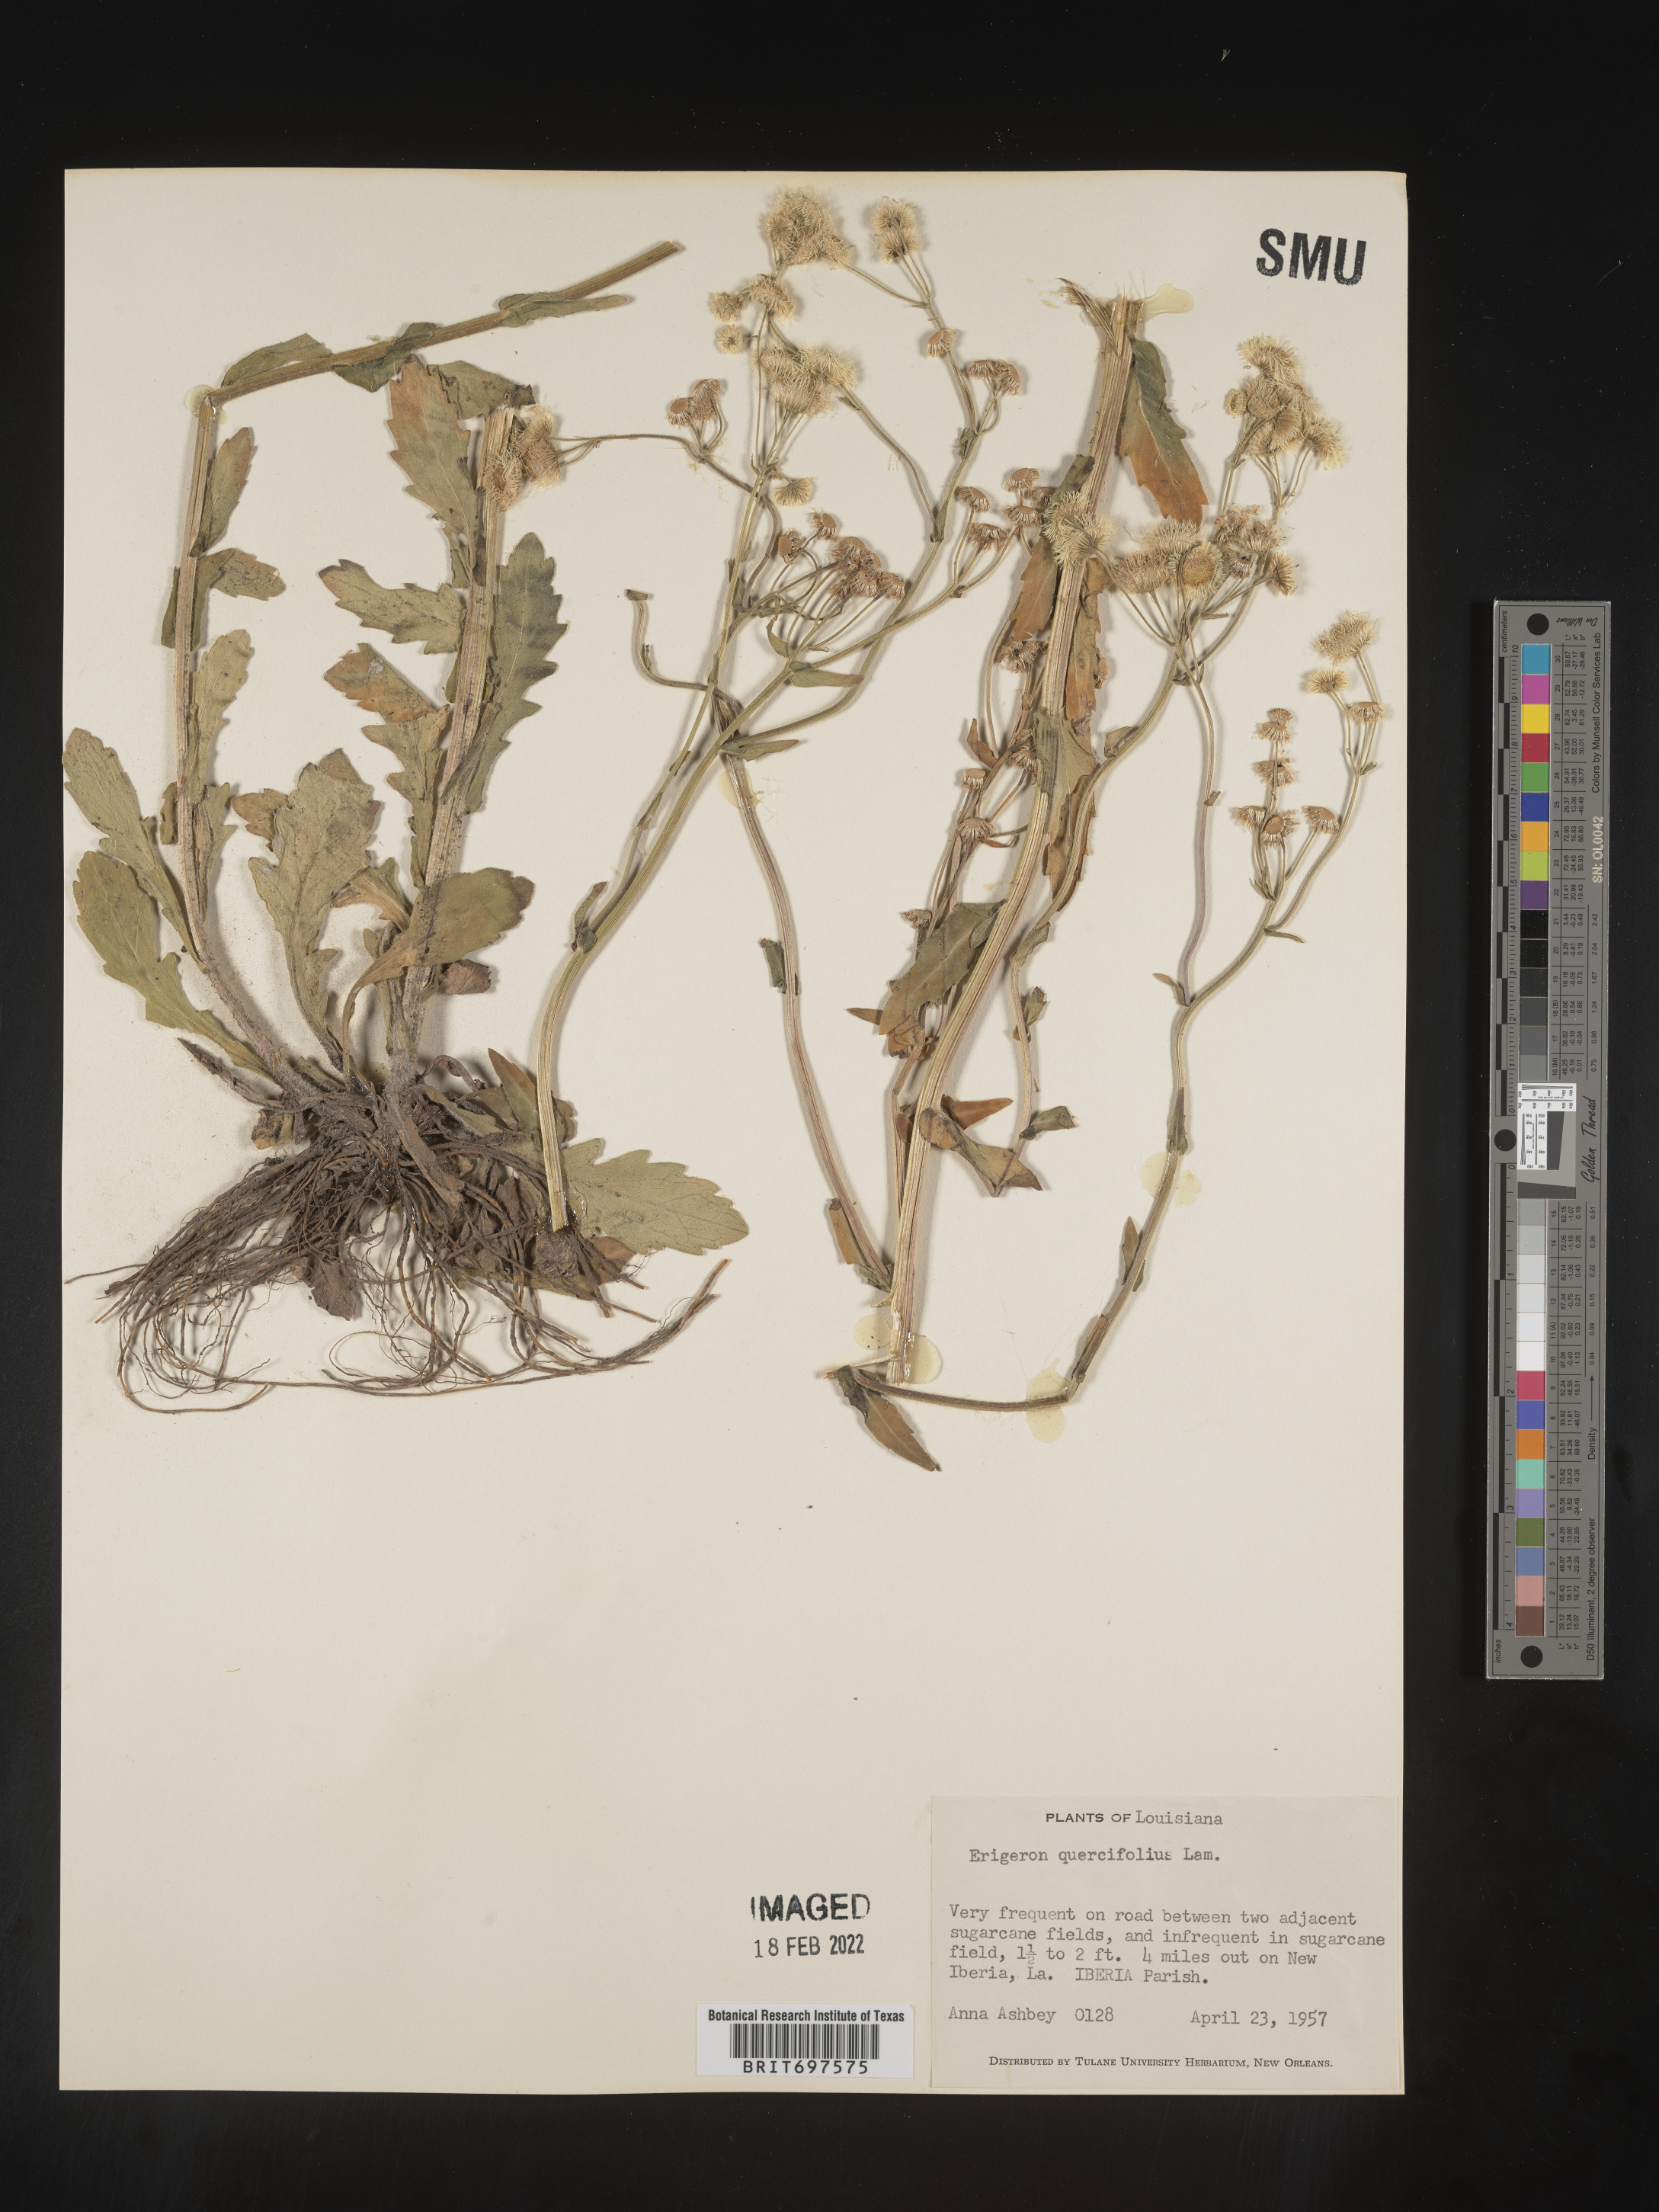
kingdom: Plantae
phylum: Tracheophyta
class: Magnoliopsida
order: Asterales
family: Asteraceae
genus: Erigeron
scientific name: Erigeron philadelphicus
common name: Robin's-plantain
